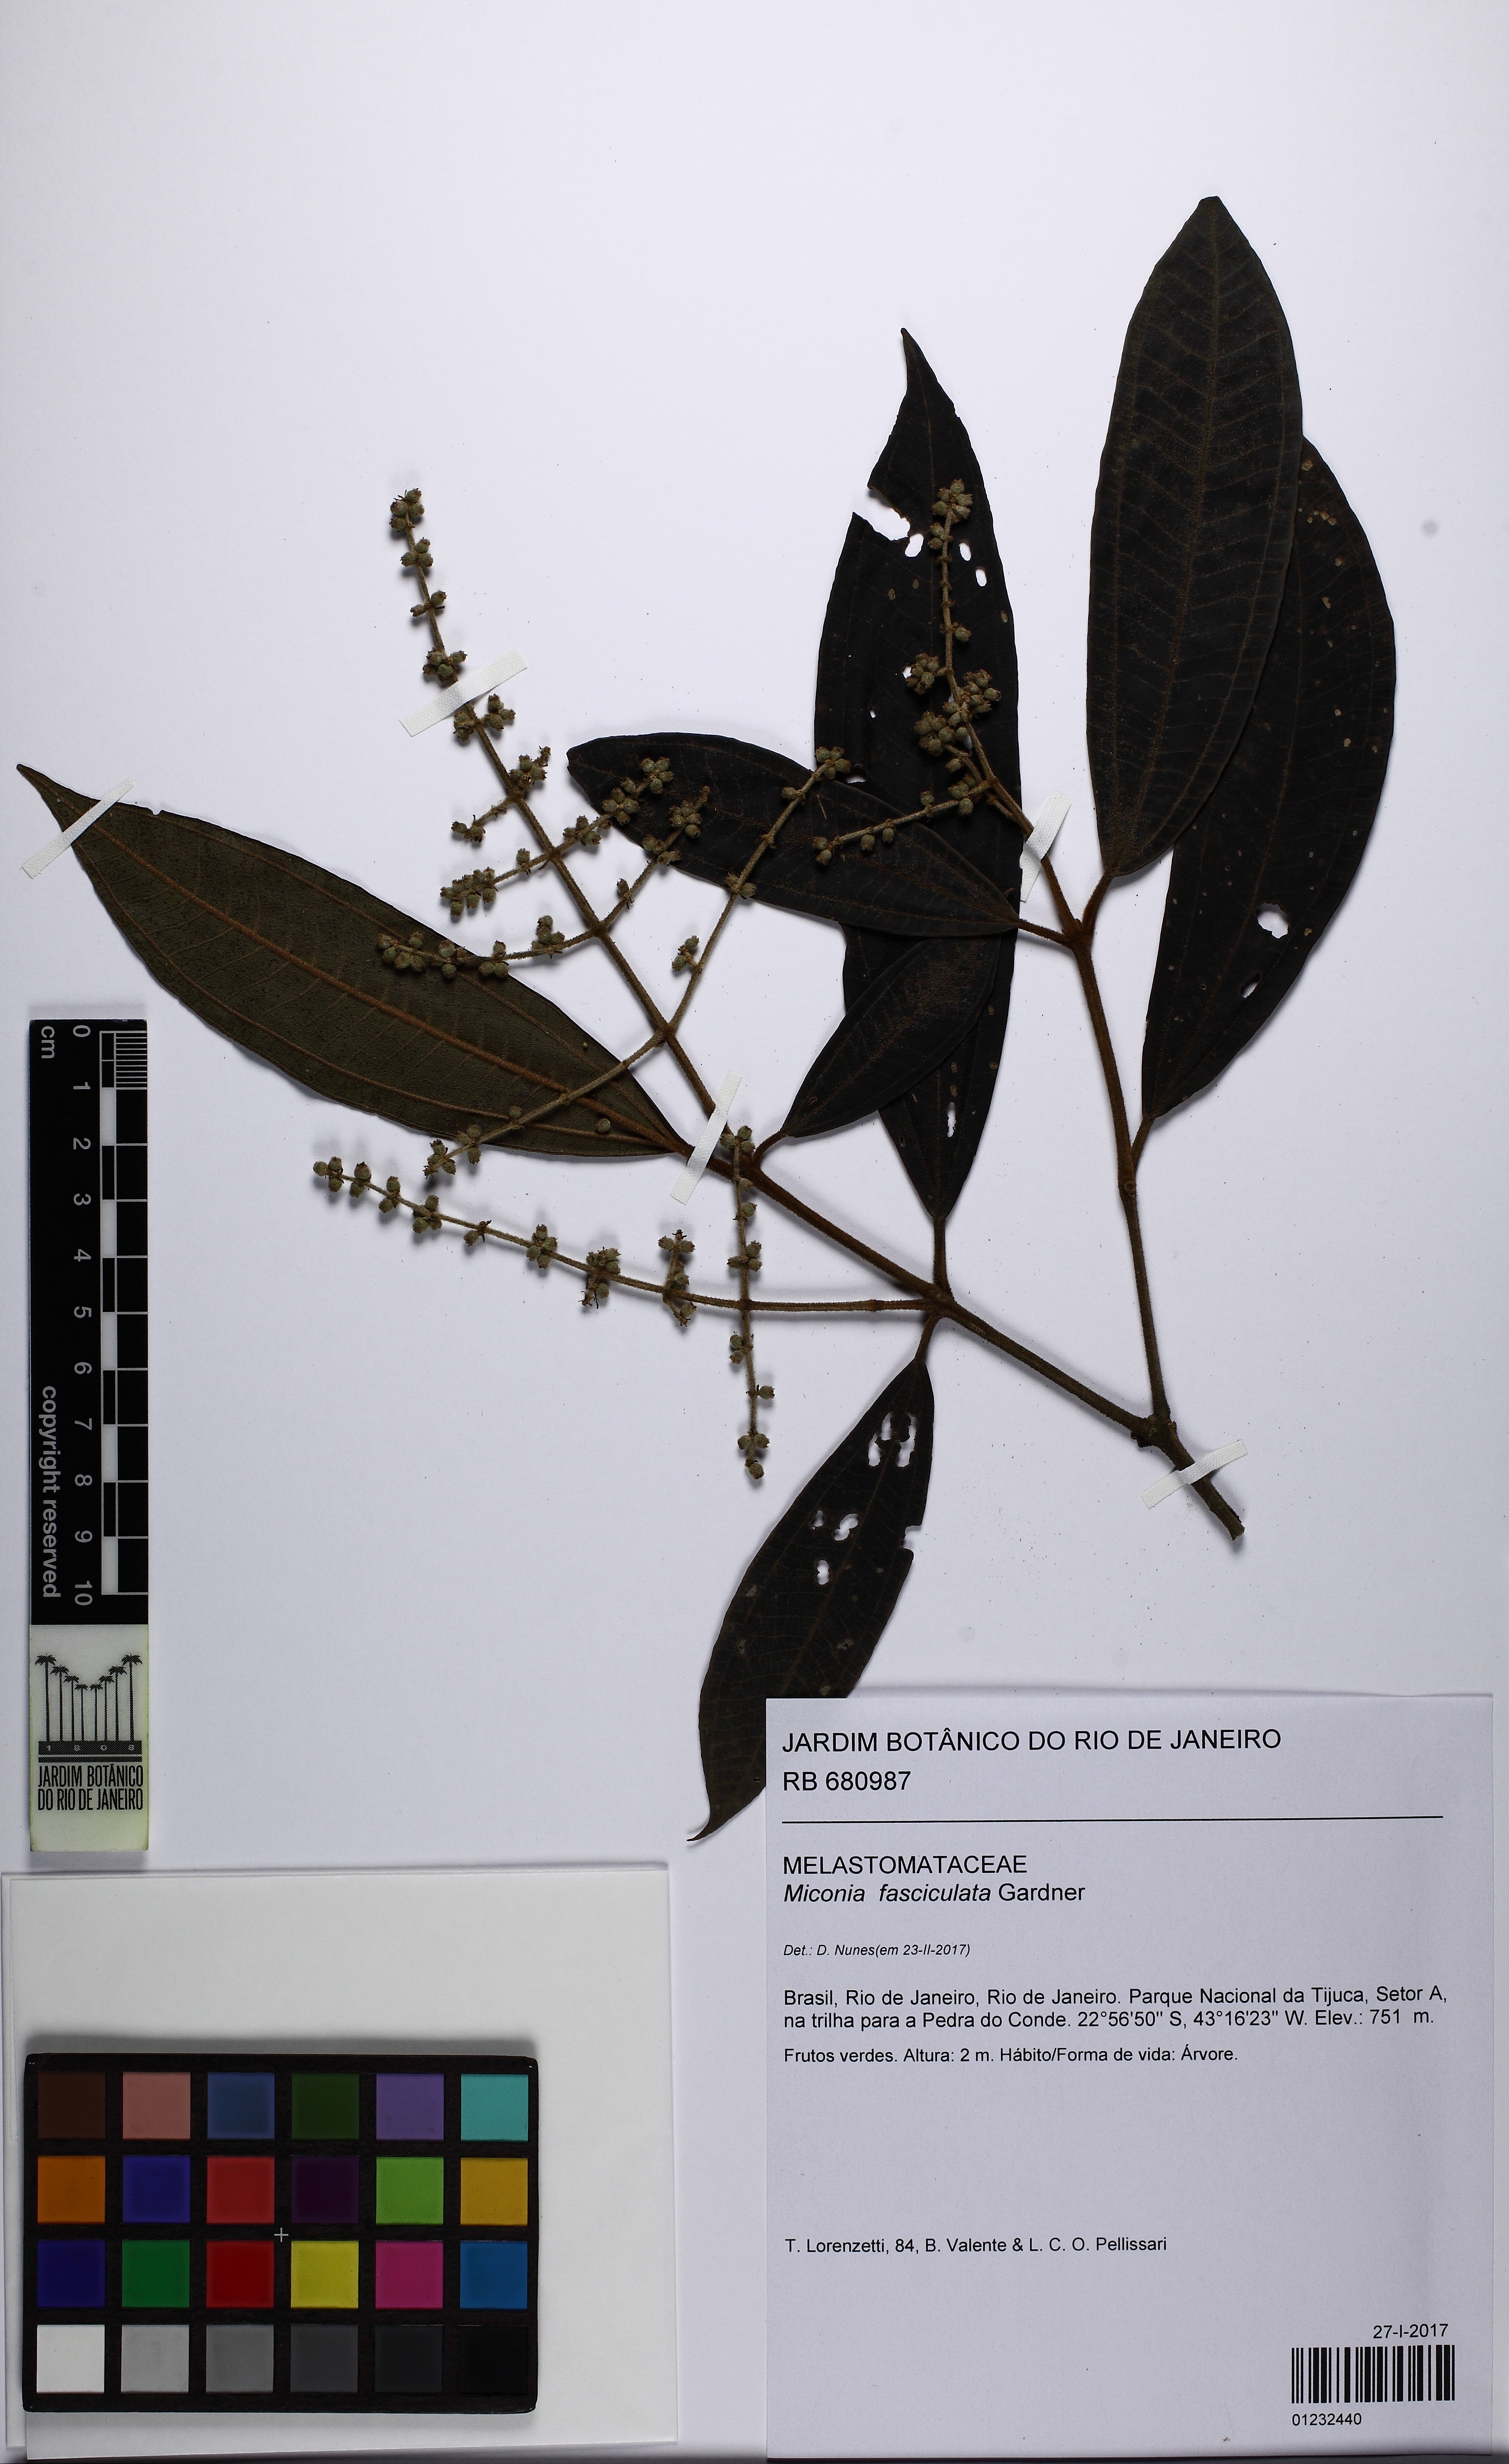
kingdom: Plantae
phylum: Tracheophyta
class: Magnoliopsida
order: Myrtales
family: Melastomataceae
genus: Miconia
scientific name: Miconia fasciculata
